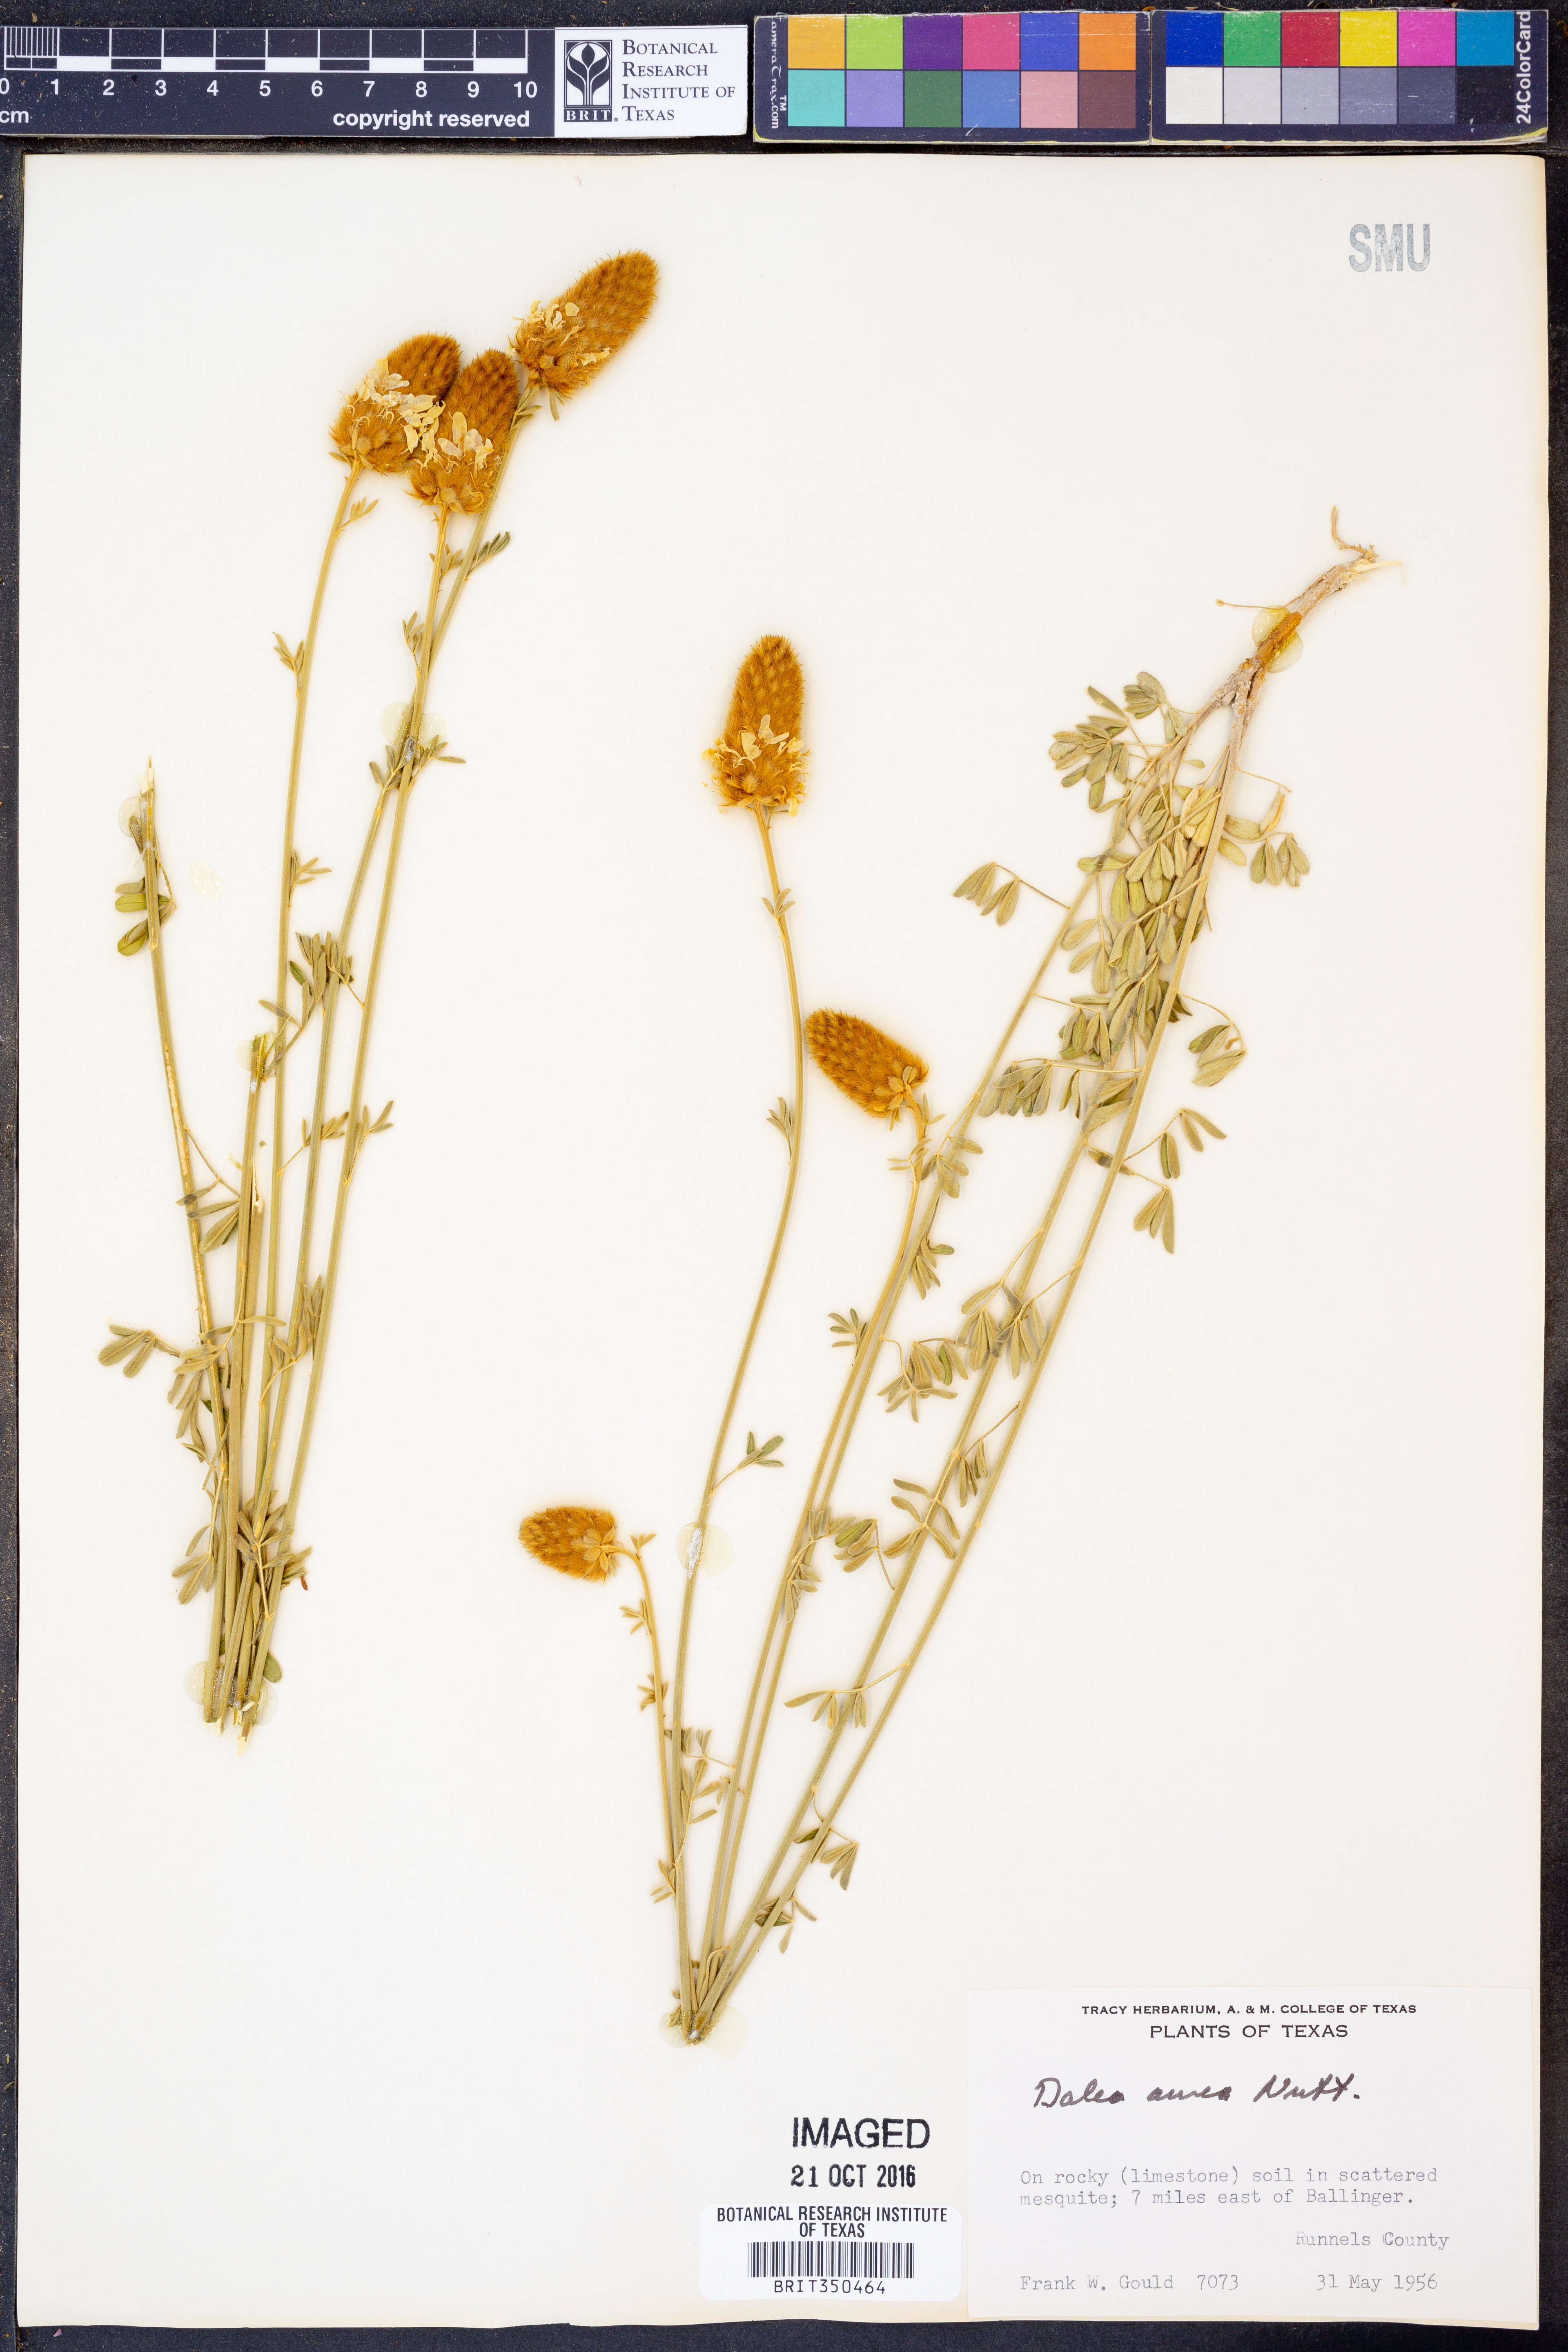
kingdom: Plantae
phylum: Tracheophyta
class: Magnoliopsida
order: Fabales
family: Fabaceae
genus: Dalea
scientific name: Dalea aurea
